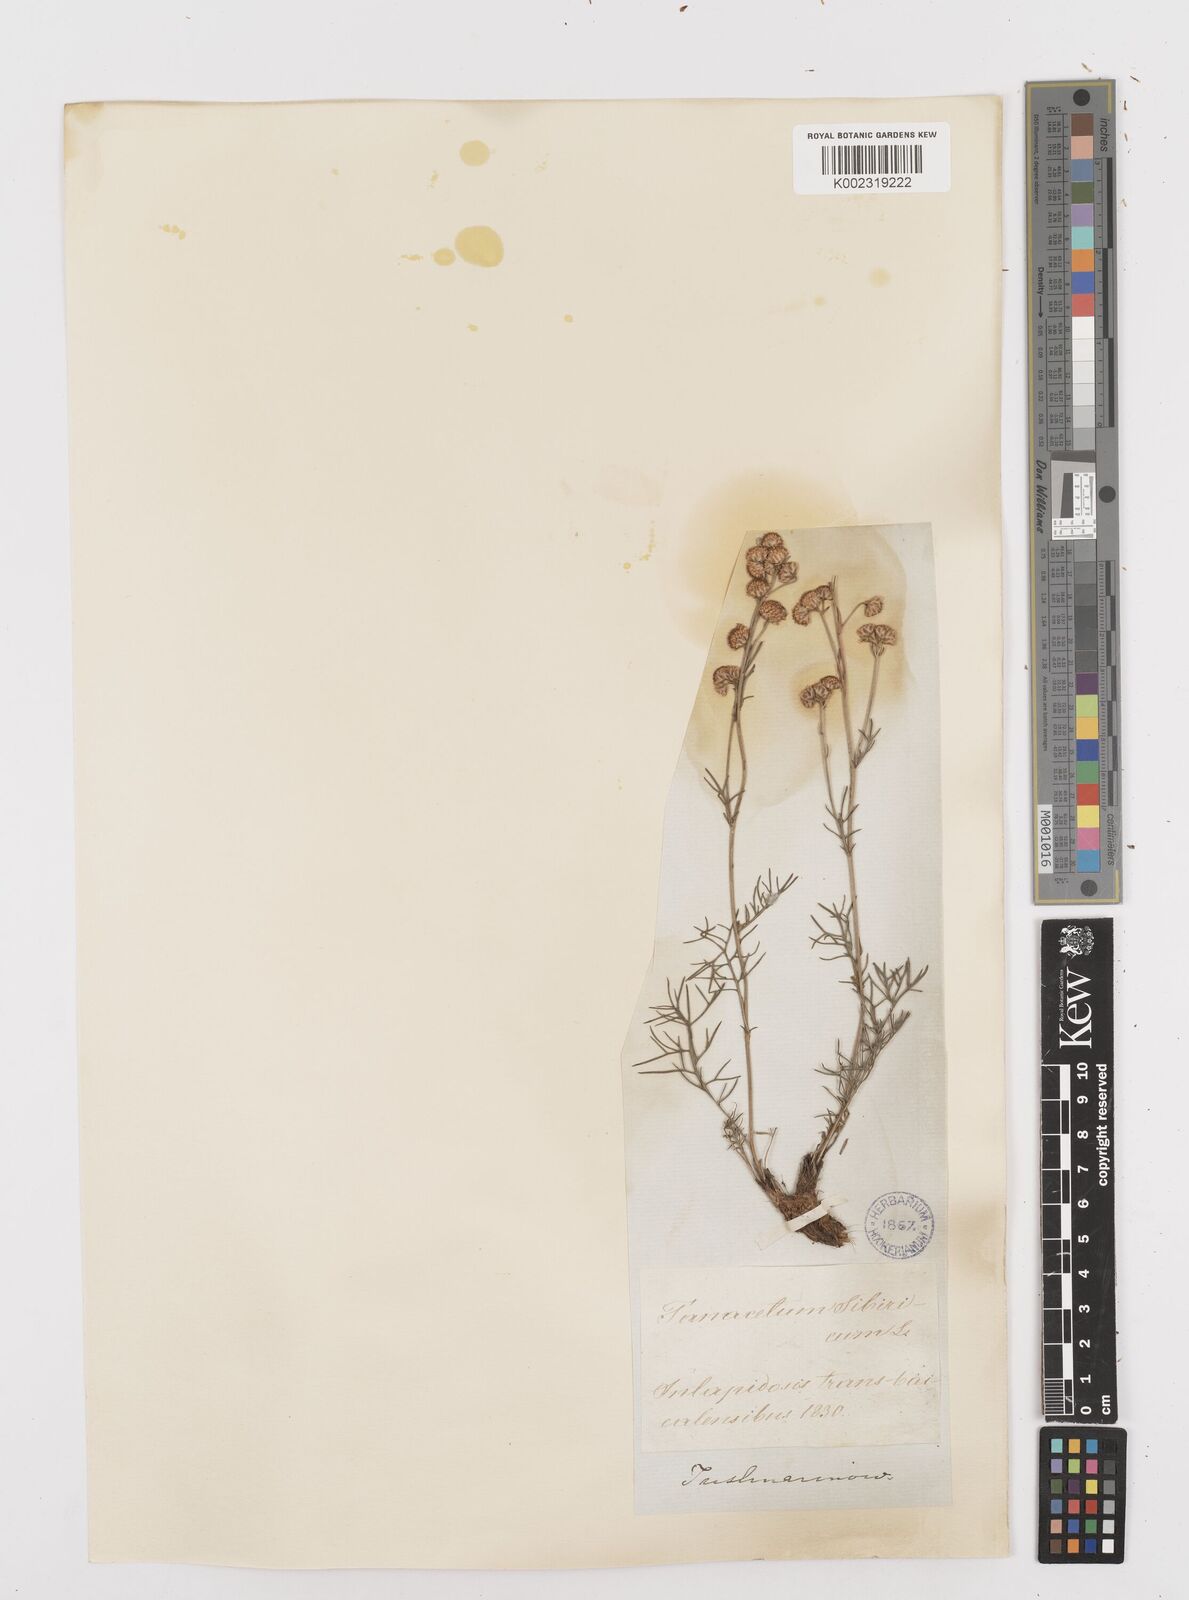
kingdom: Plantae
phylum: Tracheophyta
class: Magnoliopsida
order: Asterales
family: Asteraceae
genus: Filifolium
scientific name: Filifolium sibiricum
